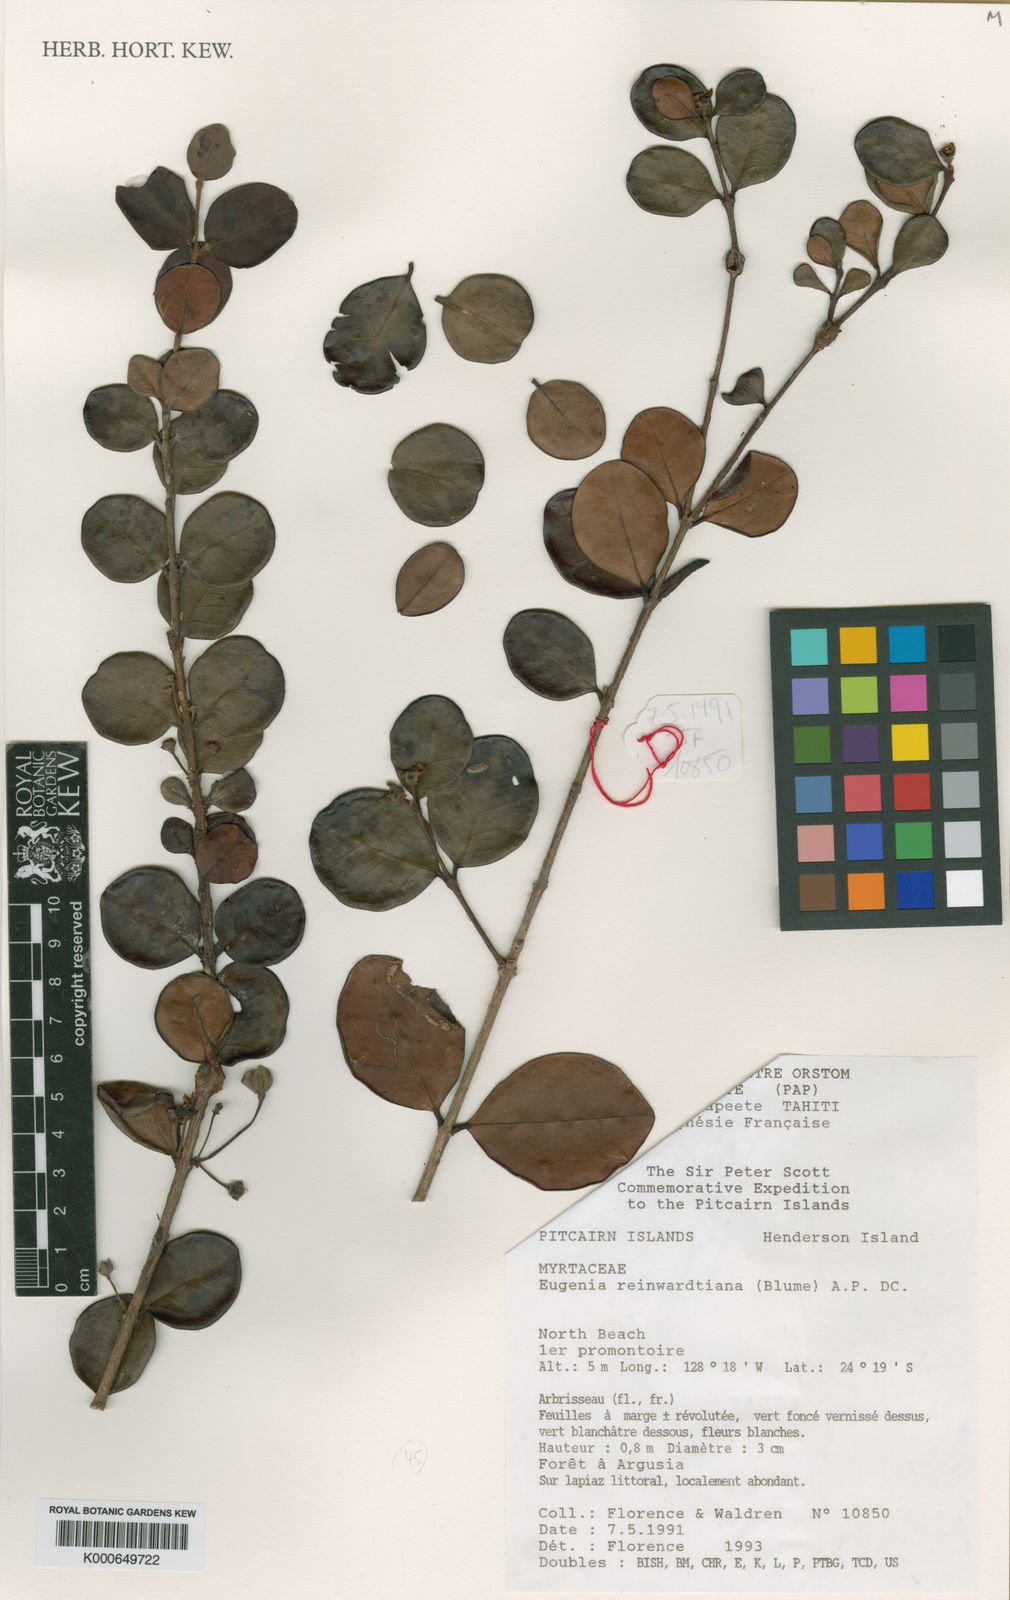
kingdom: Plantae
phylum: Tracheophyta
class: Magnoliopsida
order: Myrtales
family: Myrtaceae
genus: Eugenia
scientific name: Eugenia uniflora
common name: Surinam cherry
